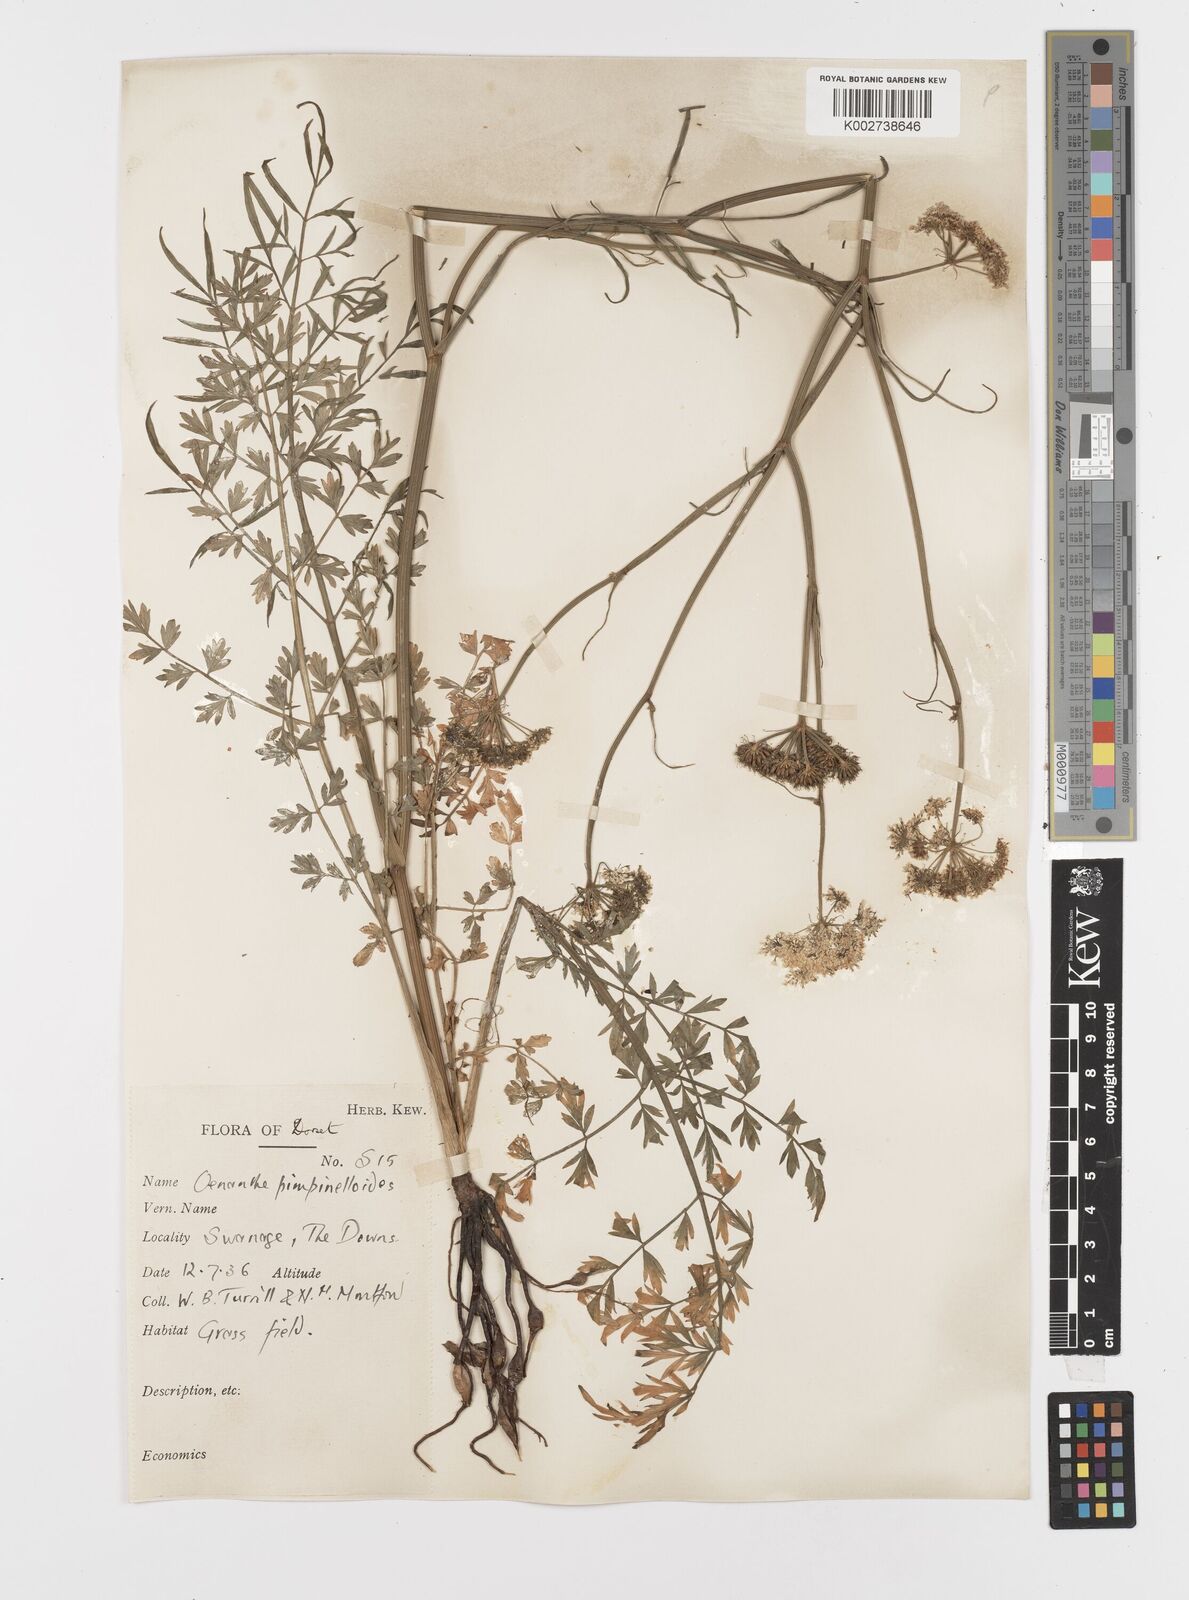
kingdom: Plantae
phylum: Tracheophyta
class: Magnoliopsida
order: Apiales
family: Apiaceae
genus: Oenanthe
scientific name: Oenanthe pimpinelloides
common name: Corky-fruited water-dropwort
